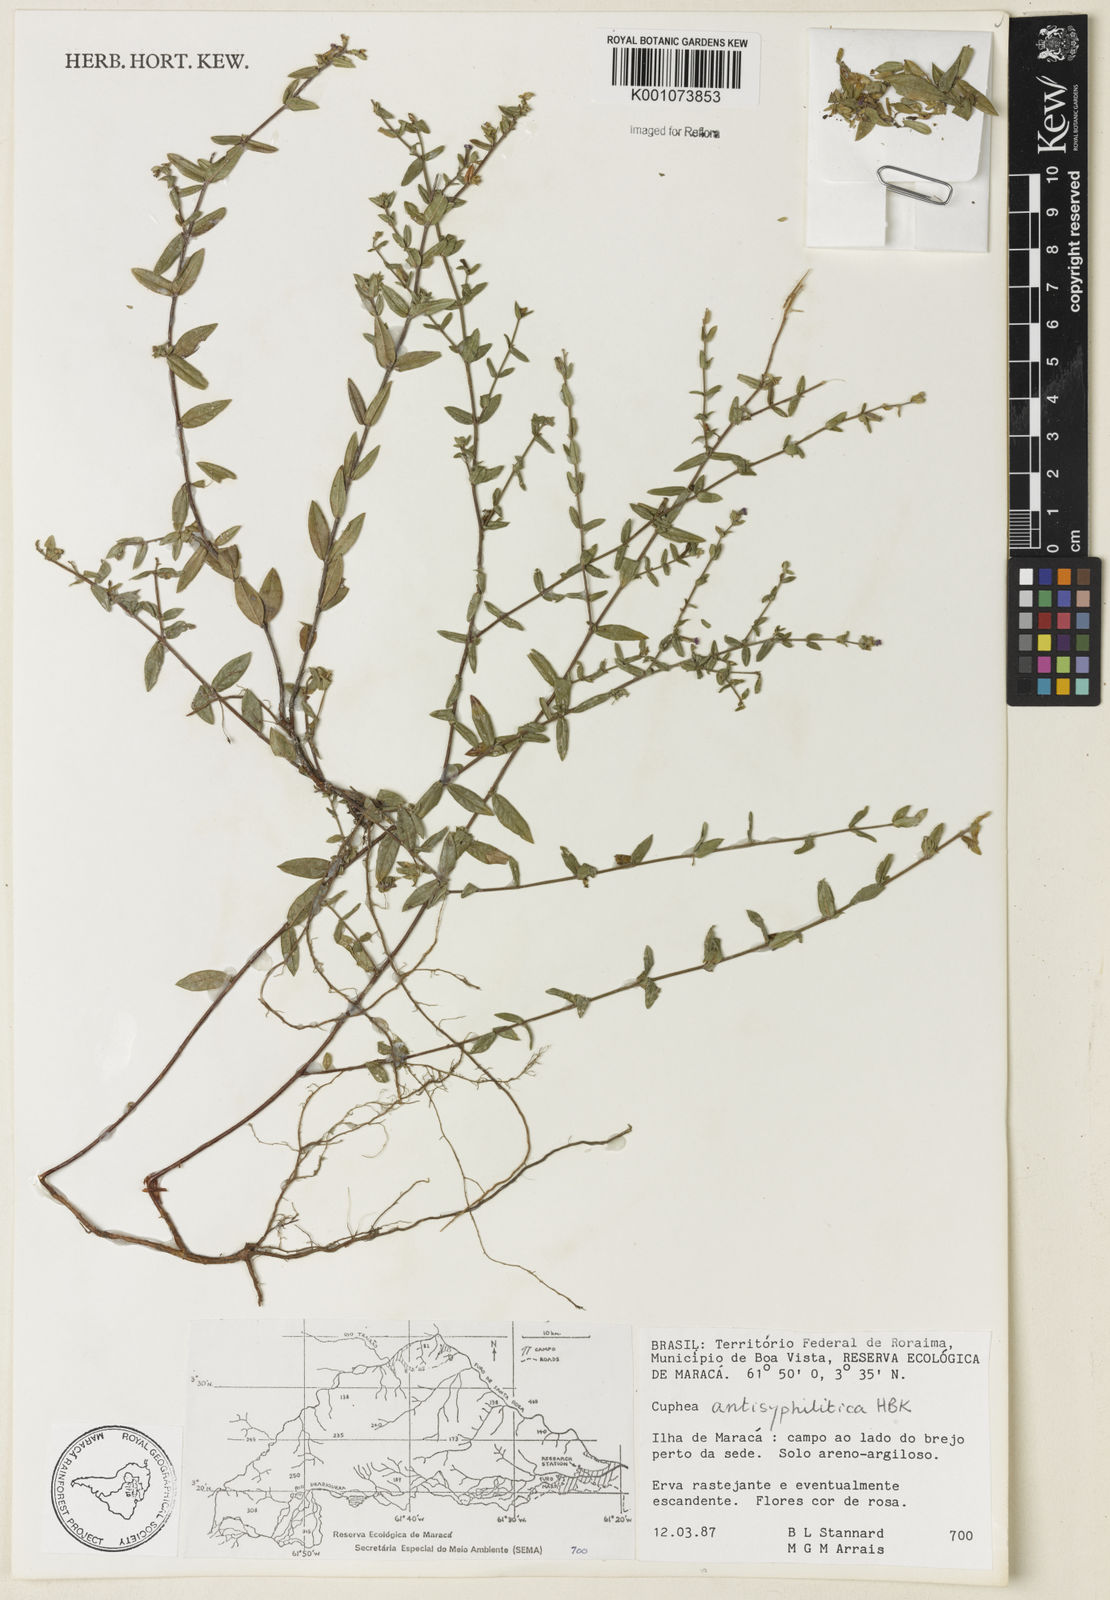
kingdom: Plantae
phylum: Tracheophyta
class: Magnoliopsida
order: Myrtales
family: Lythraceae
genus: Cuphea
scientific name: Cuphea antisyphilitica
